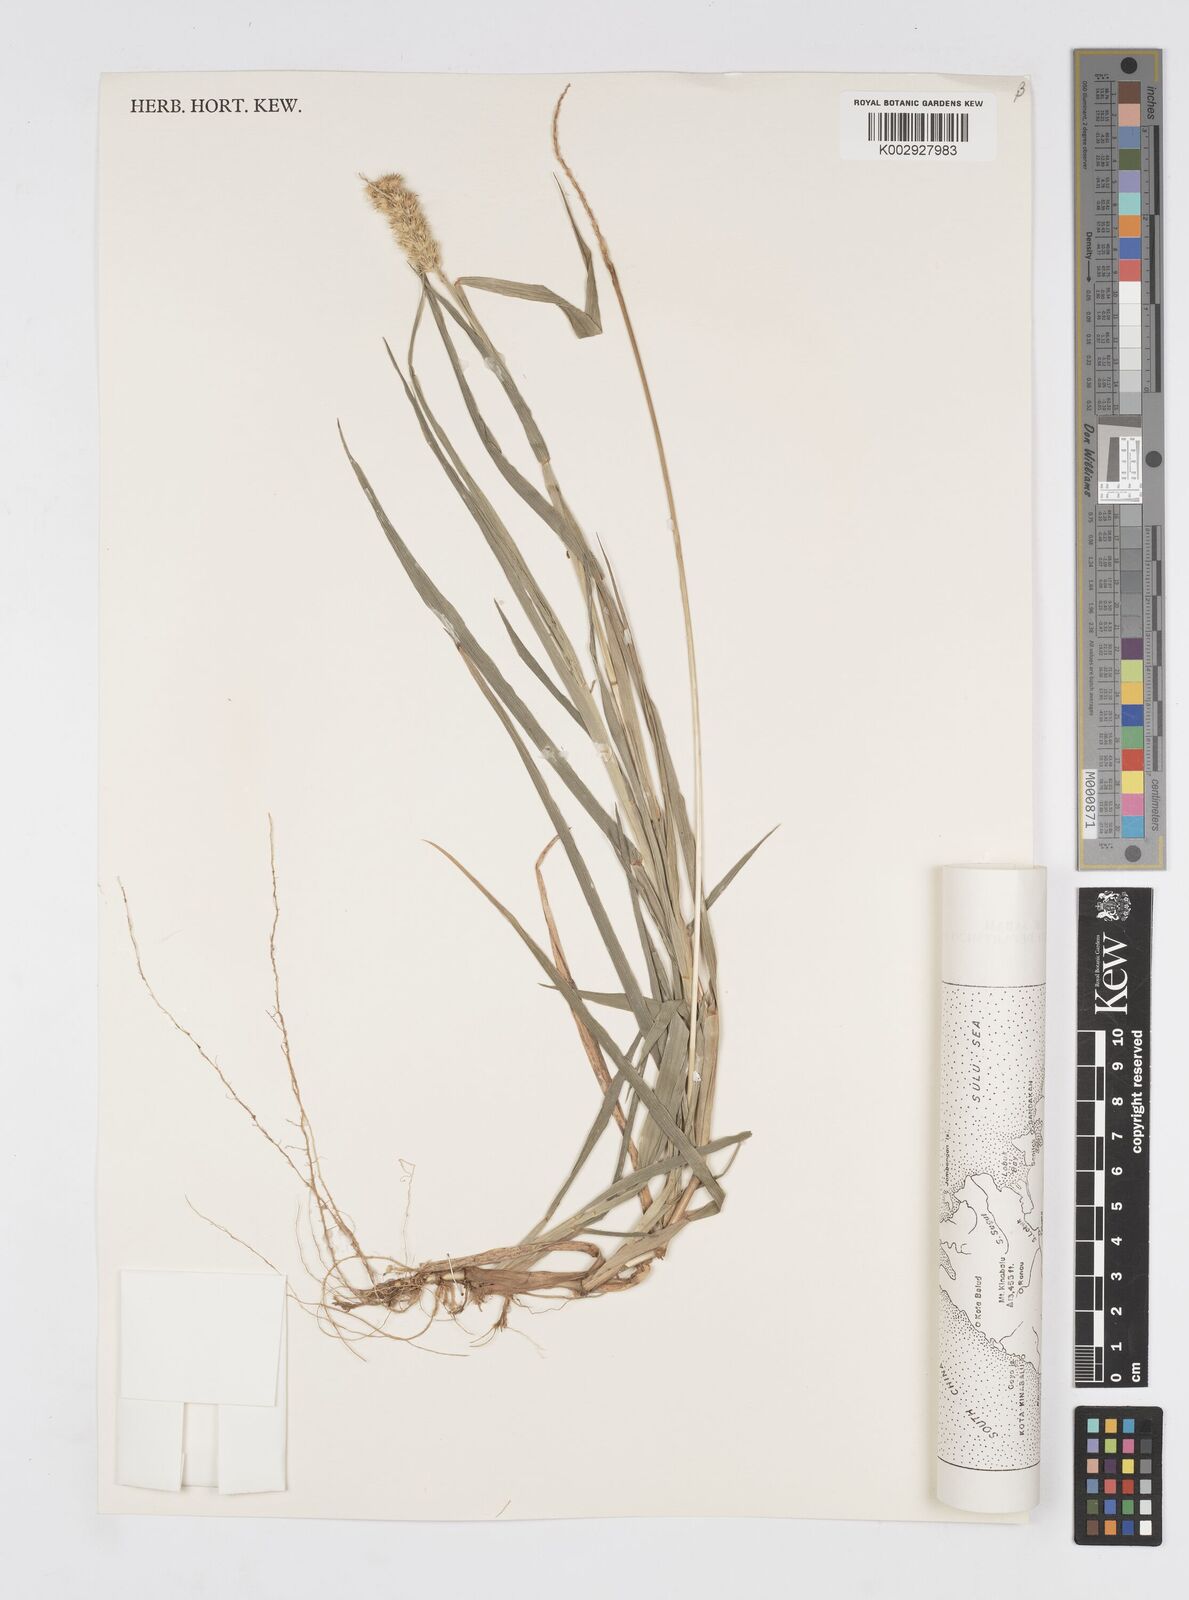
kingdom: Plantae
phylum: Tracheophyta
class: Liliopsida
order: Poales
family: Poaceae
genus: Cenchrus
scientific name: Cenchrus brownii
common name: Slim-bristle sandbur
